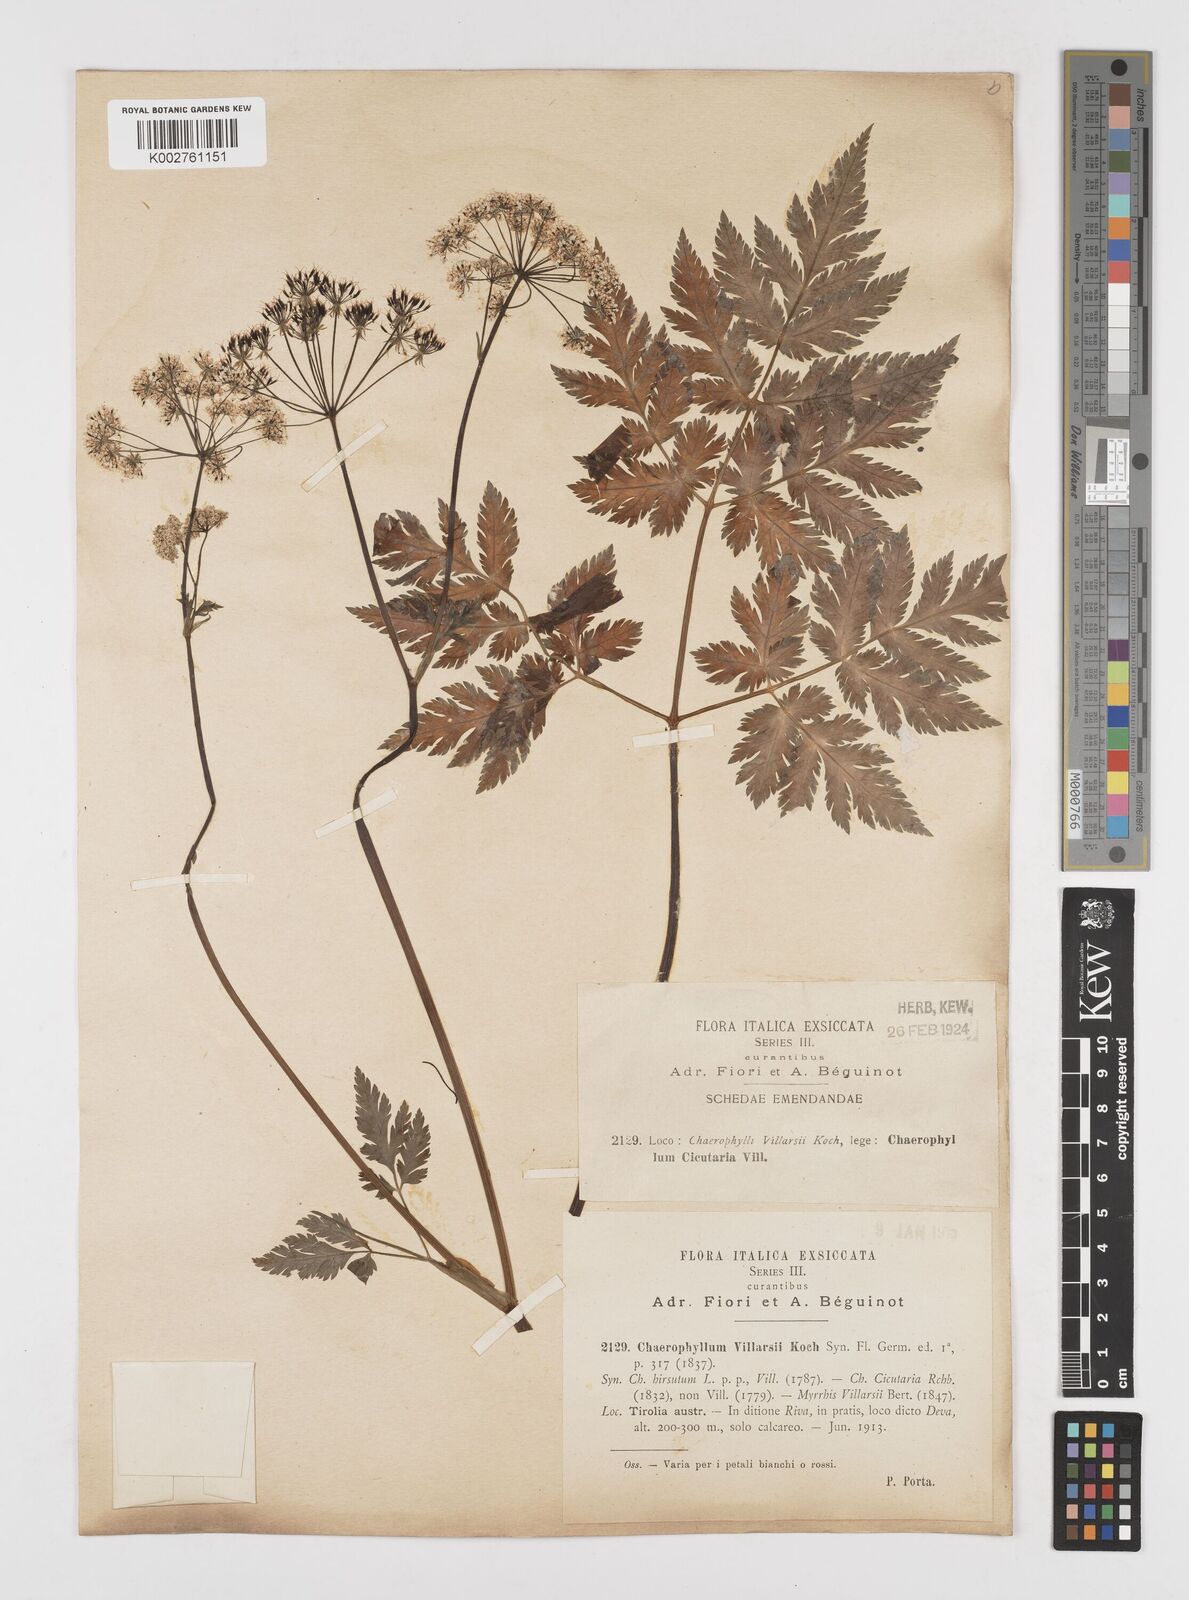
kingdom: Plantae
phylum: Tracheophyta
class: Magnoliopsida
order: Apiales
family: Apiaceae
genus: Chaerophyllum
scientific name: Chaerophyllum hirsutum
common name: Hairy chervil
